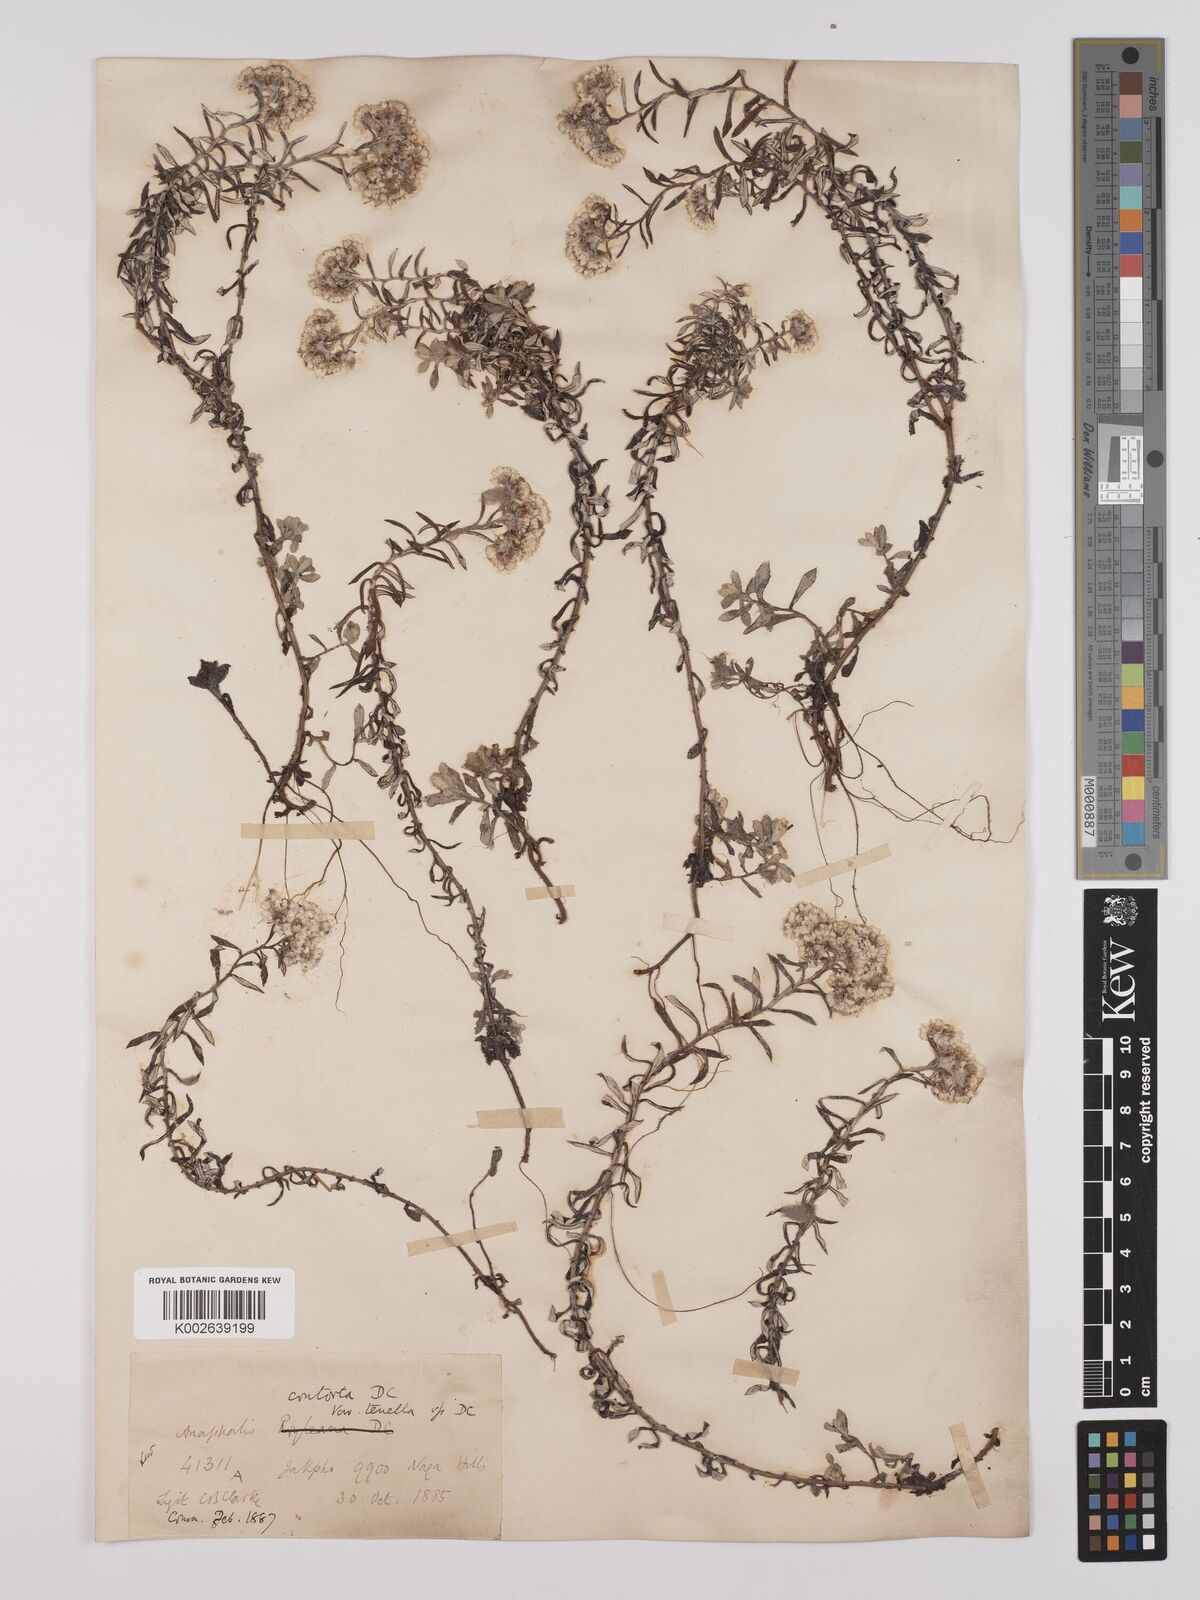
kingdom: Plantae
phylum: Tracheophyta
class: Magnoliopsida
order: Asterales
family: Asteraceae
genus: Anaphalis
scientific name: Anaphalis contorta
